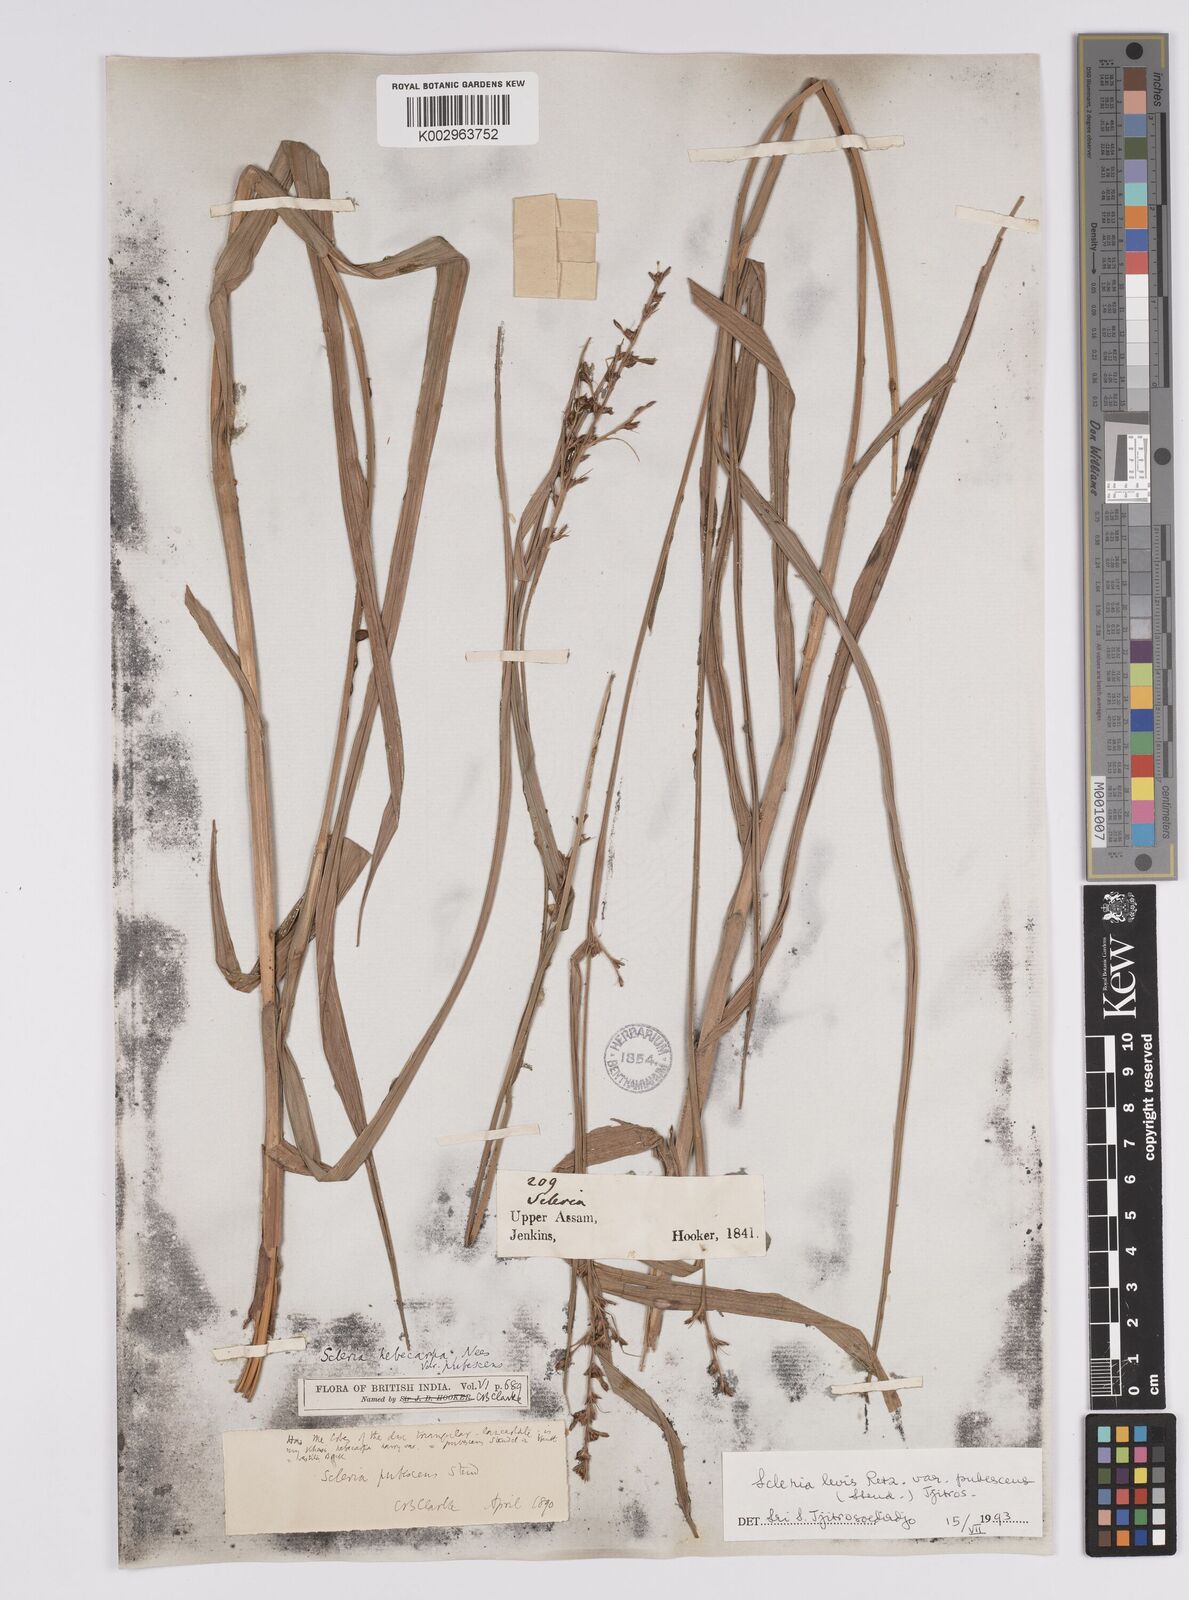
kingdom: Plantae
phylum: Tracheophyta
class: Liliopsida
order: Poales
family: Cyperaceae
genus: Scleria
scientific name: Scleria levis
